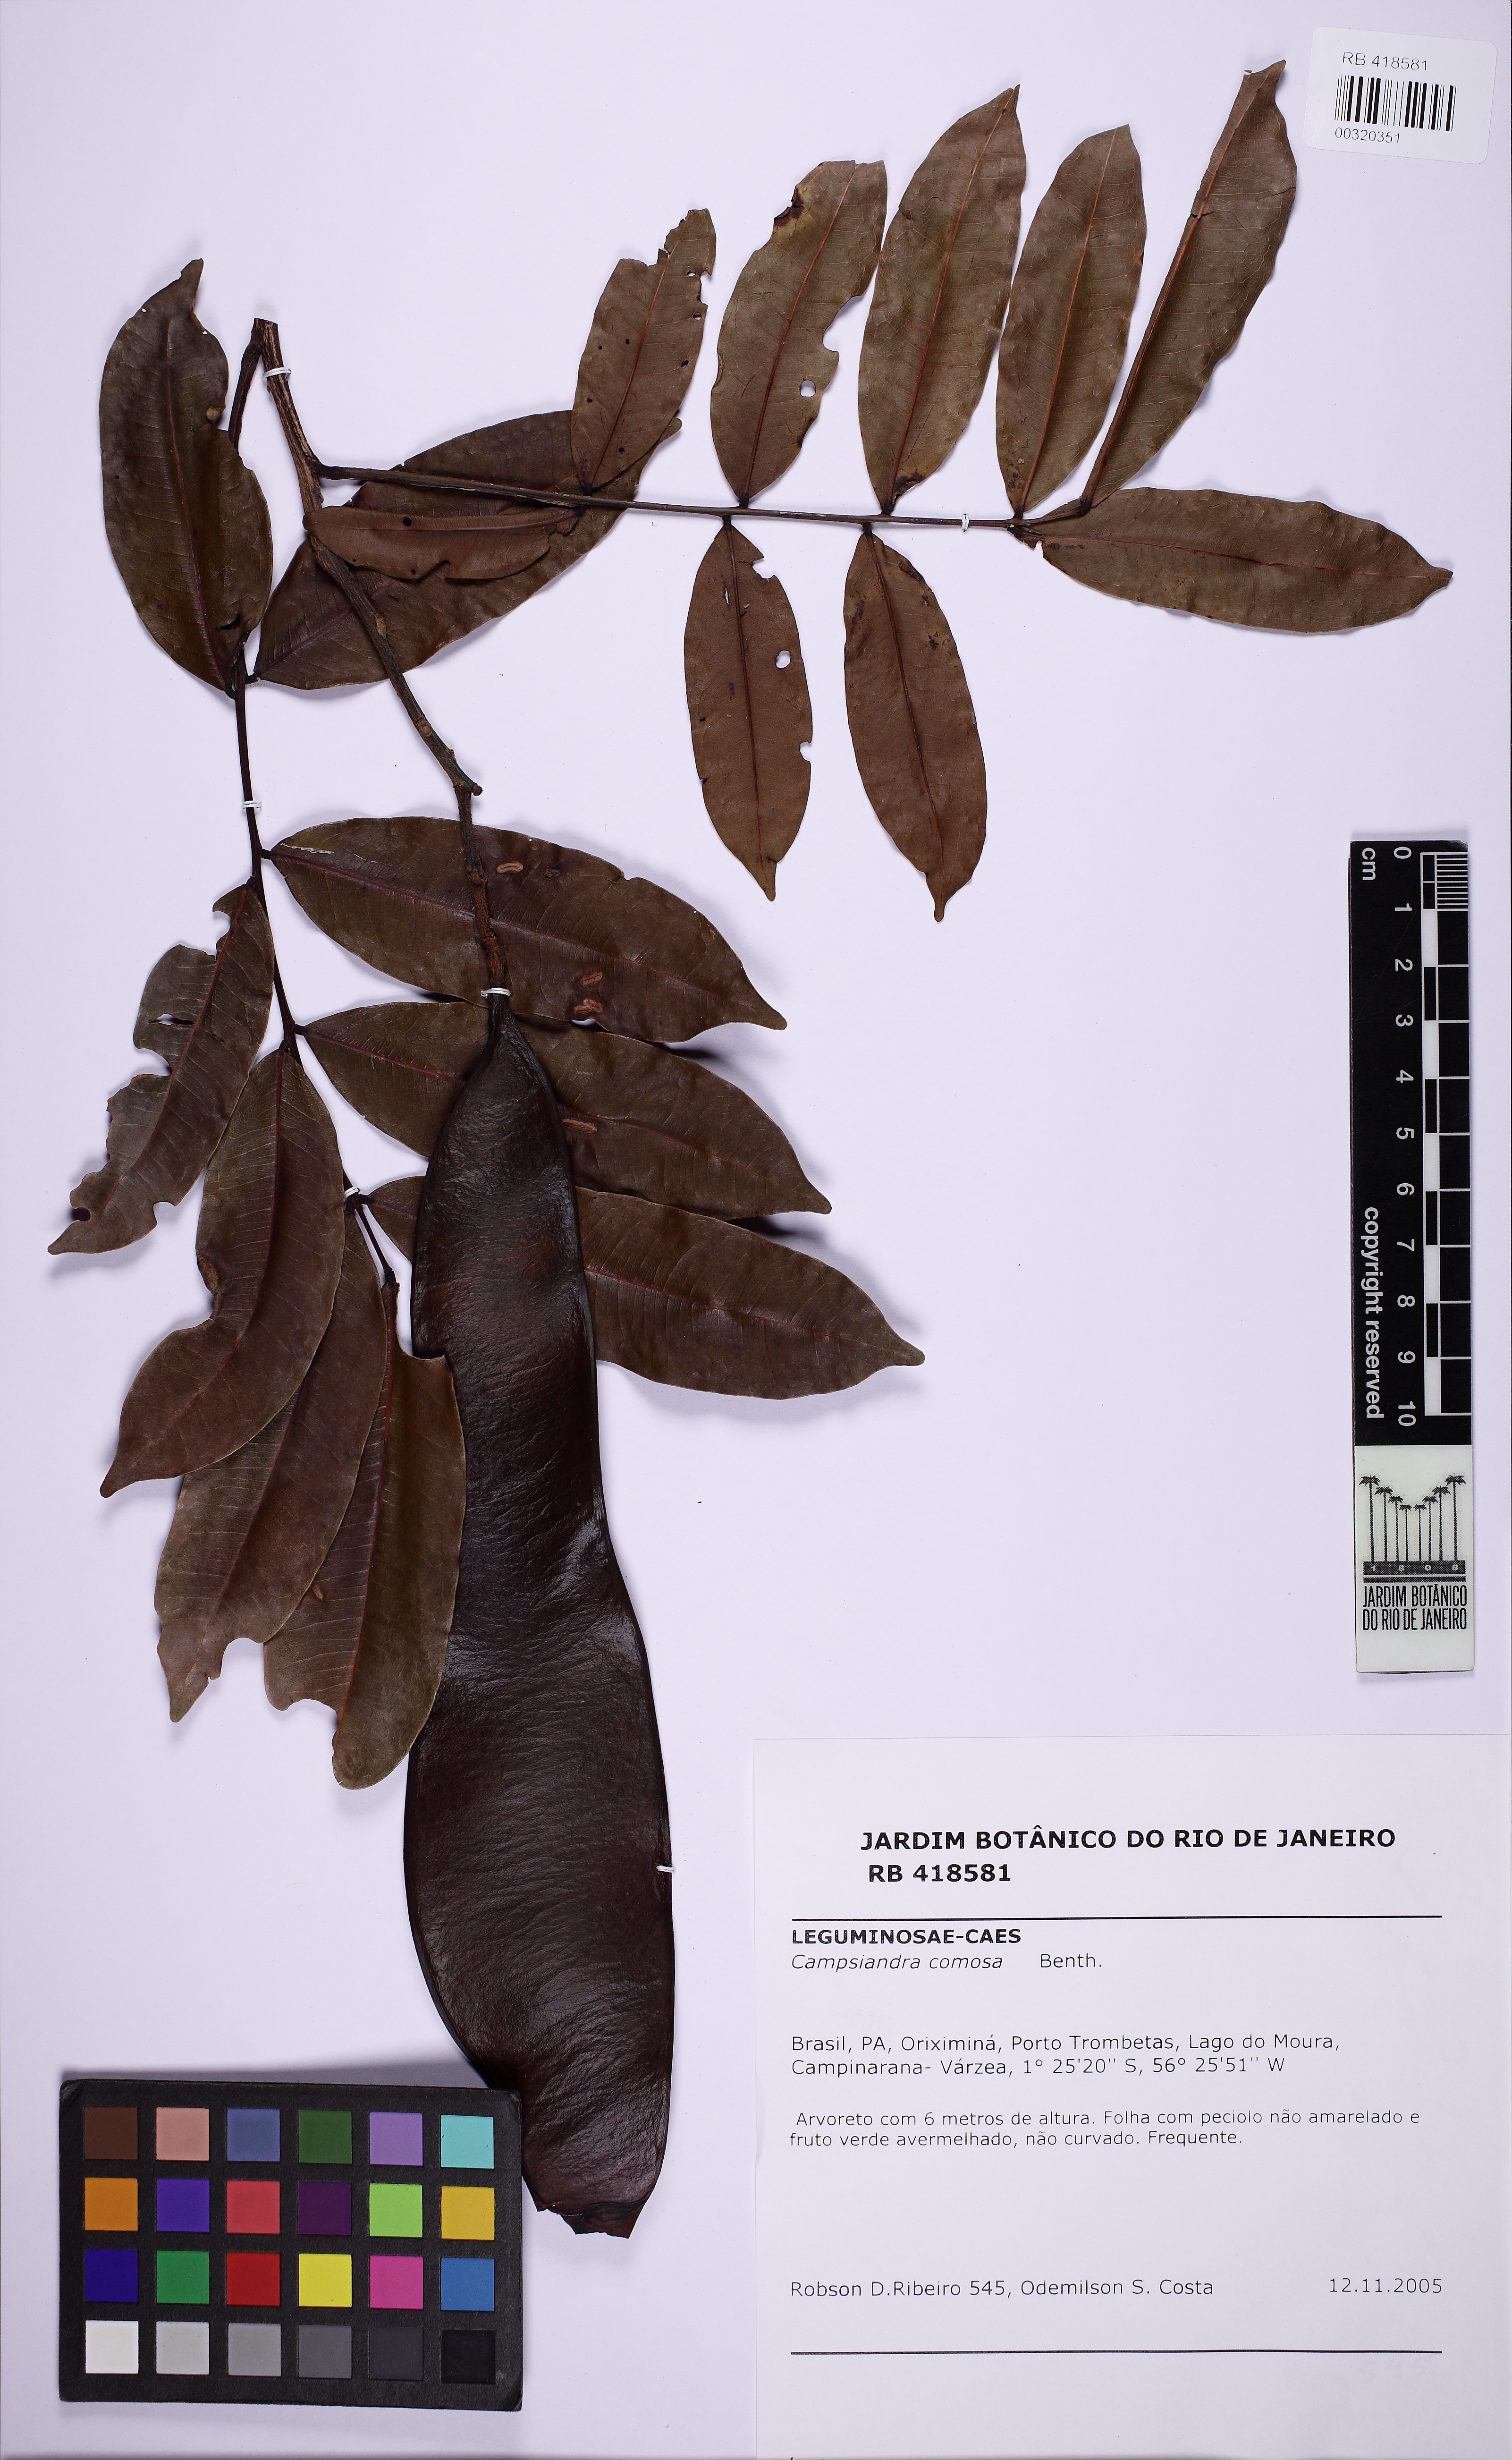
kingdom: Plantae
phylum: Tracheophyta
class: Magnoliopsida
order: Fabales
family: Fabaceae
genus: Campsiandra
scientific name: Campsiandra comosa
